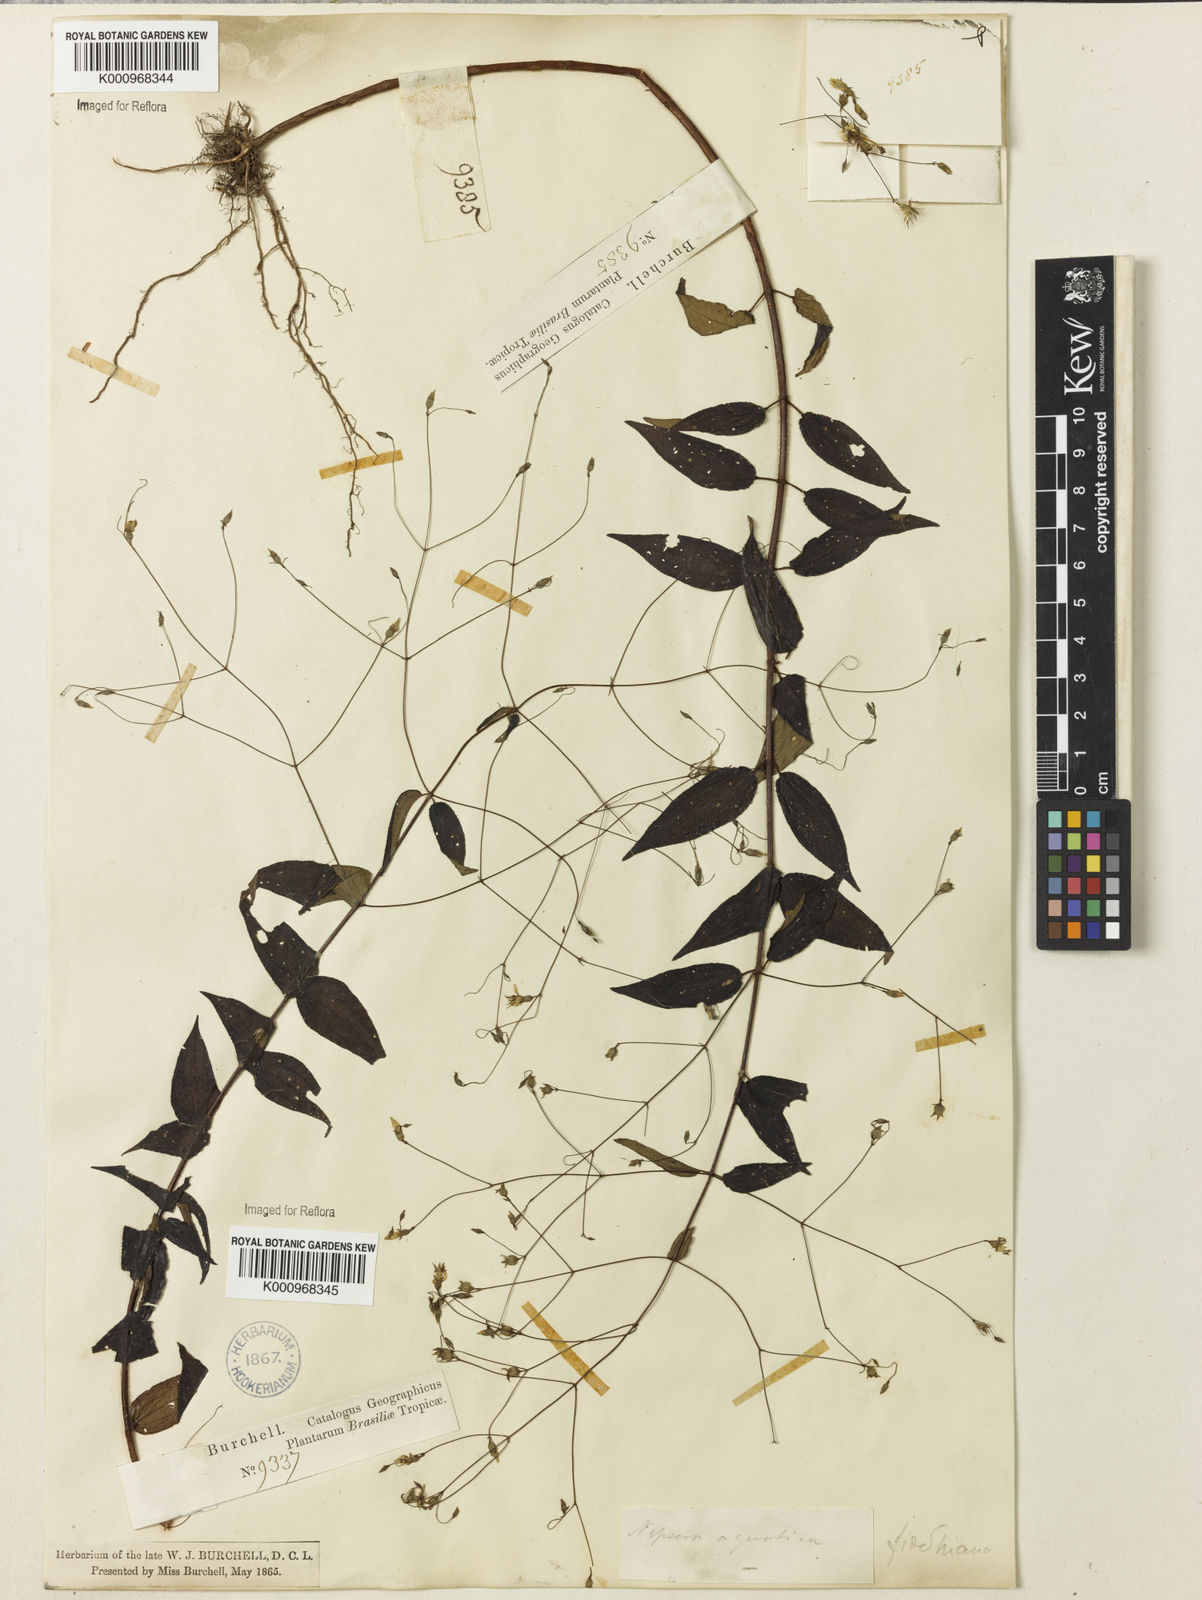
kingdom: Plantae
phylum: Tracheophyta
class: Magnoliopsida
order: Myrtales
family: Melastomataceae
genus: Nepsera
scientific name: Nepsera aquatica
